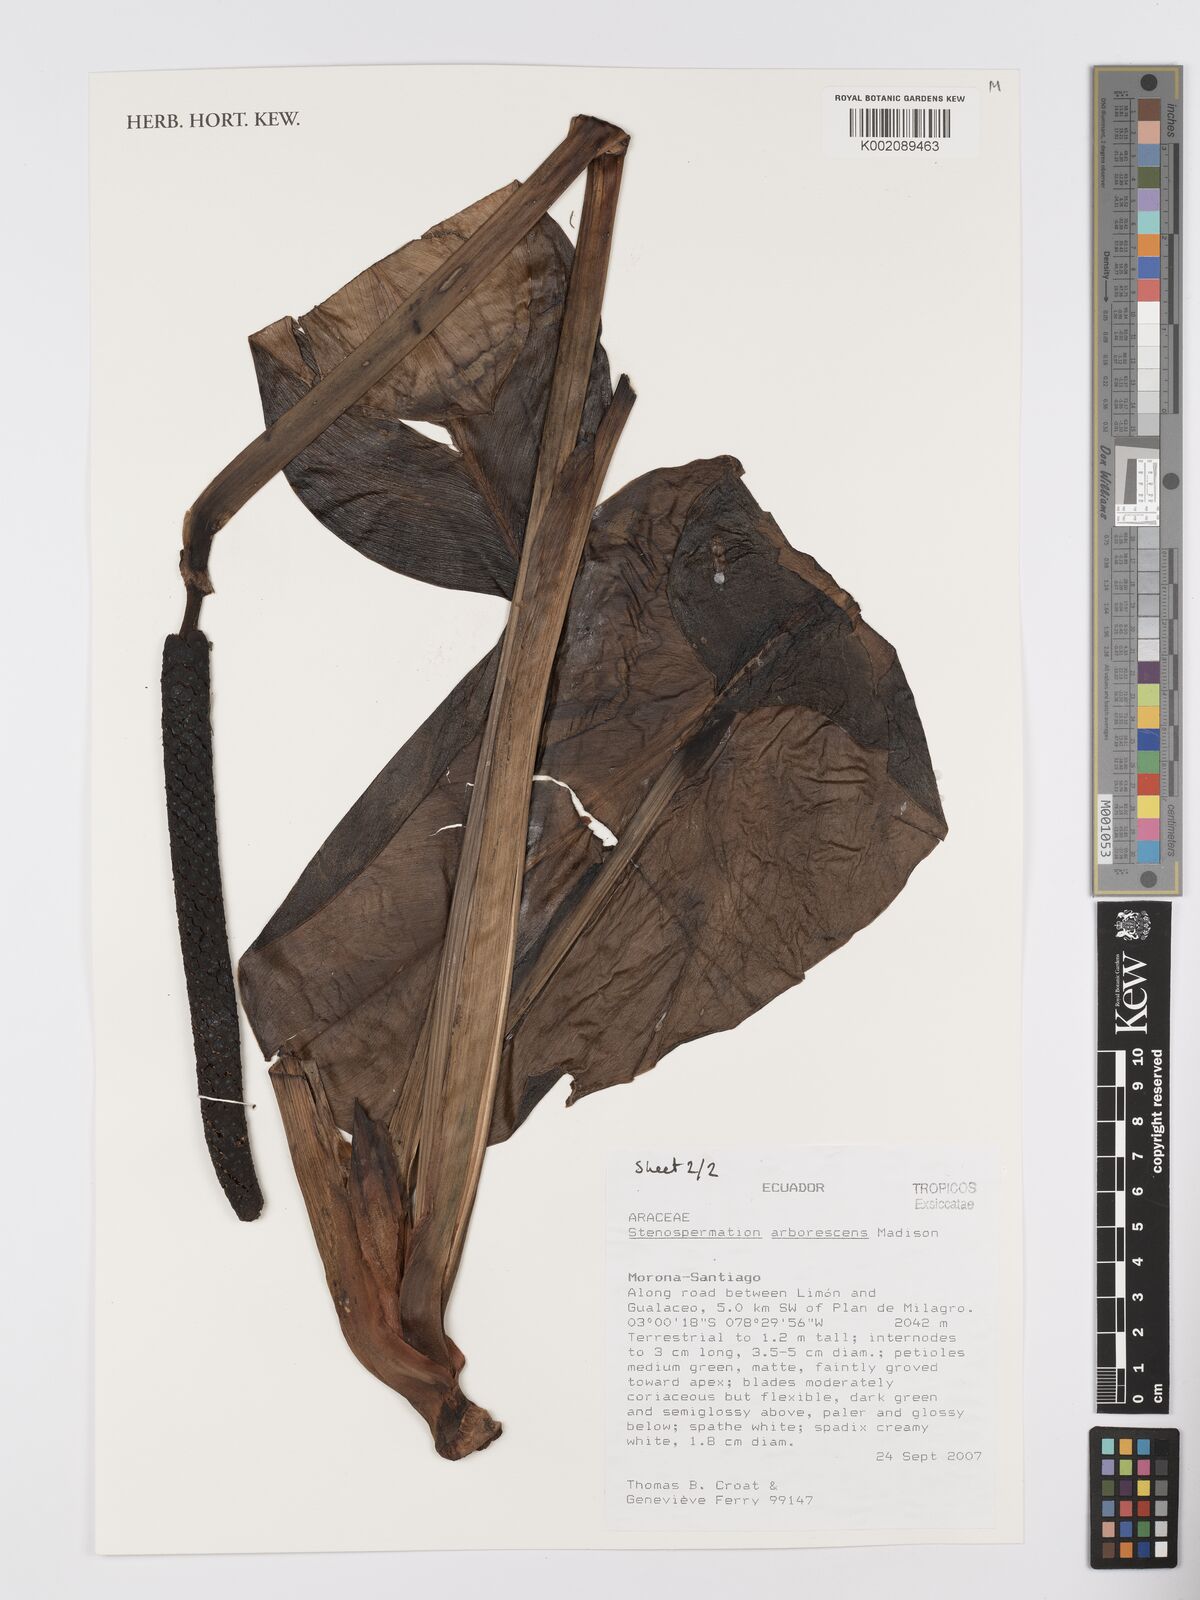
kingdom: Plantae
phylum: Tracheophyta
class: Liliopsida
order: Alismatales
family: Araceae
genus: Stenospermation
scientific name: Stenospermation arborescens
